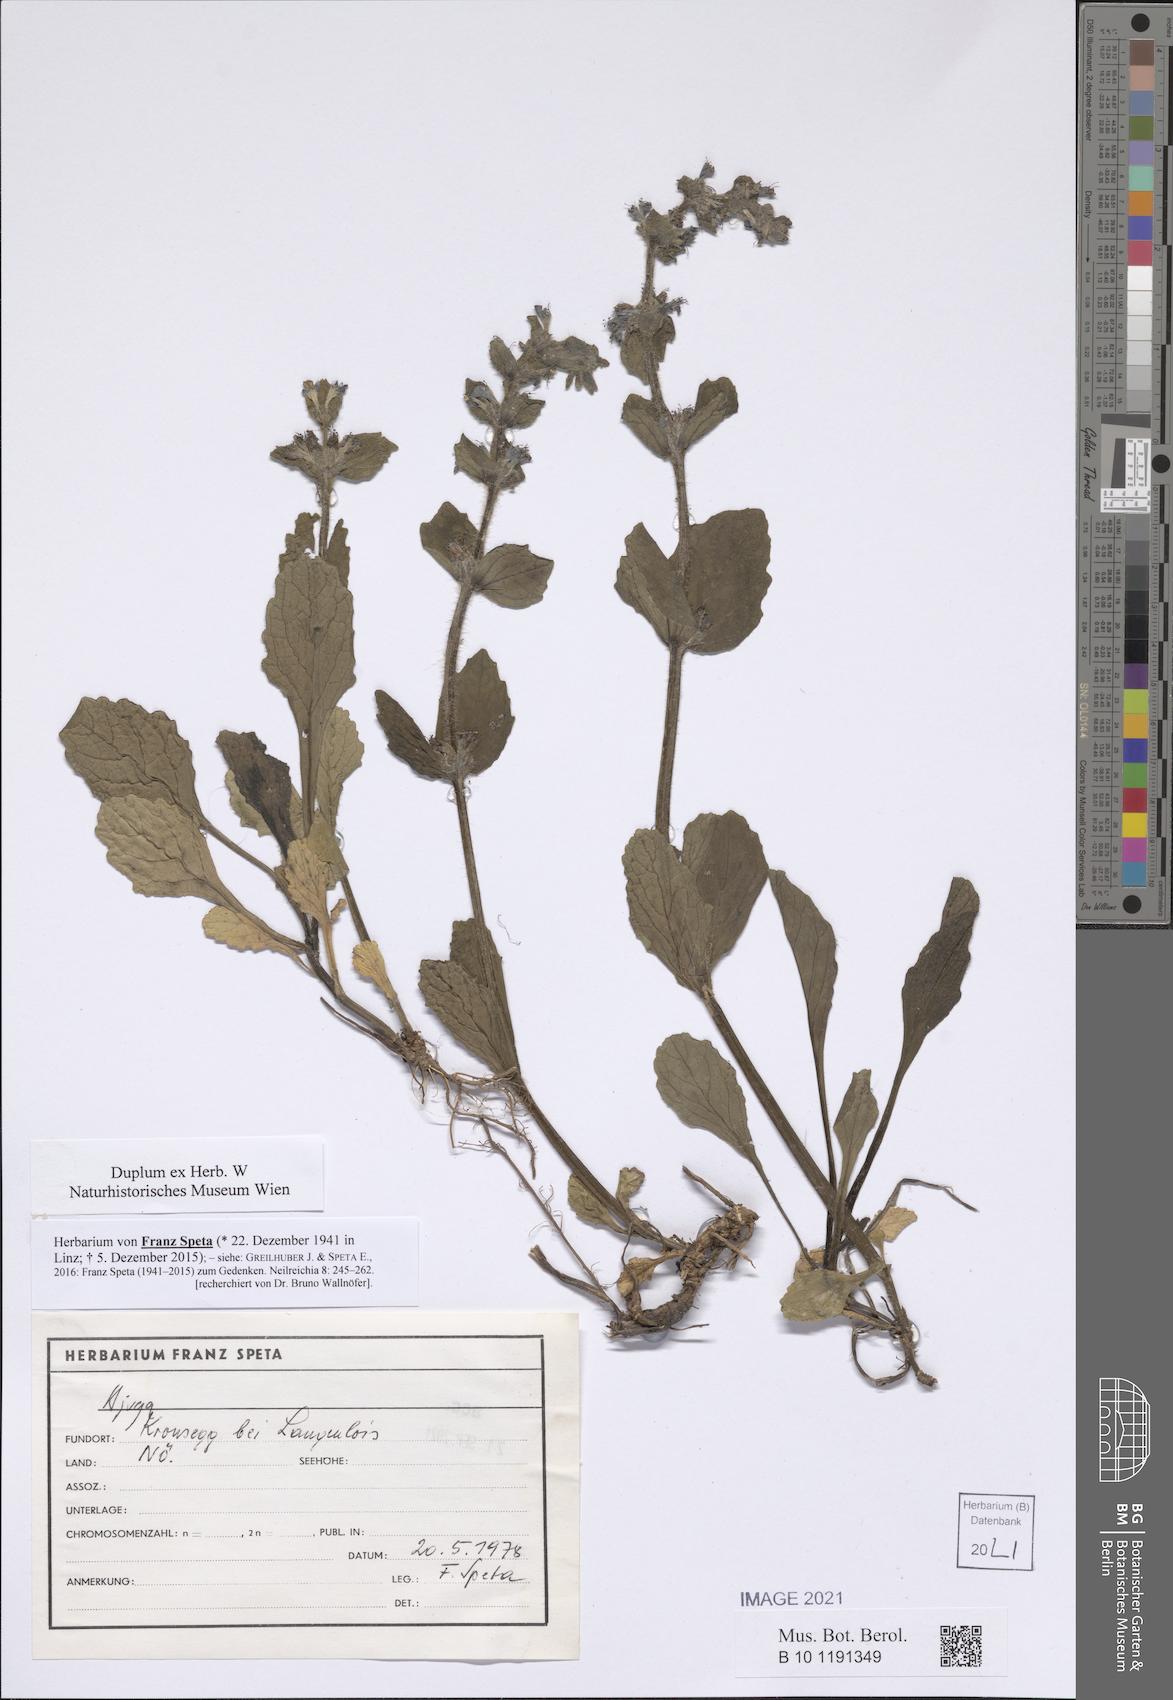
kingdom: Plantae
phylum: Tracheophyta
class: Magnoliopsida
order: Lamiales
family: Lamiaceae
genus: Ajuga
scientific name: Ajuga
